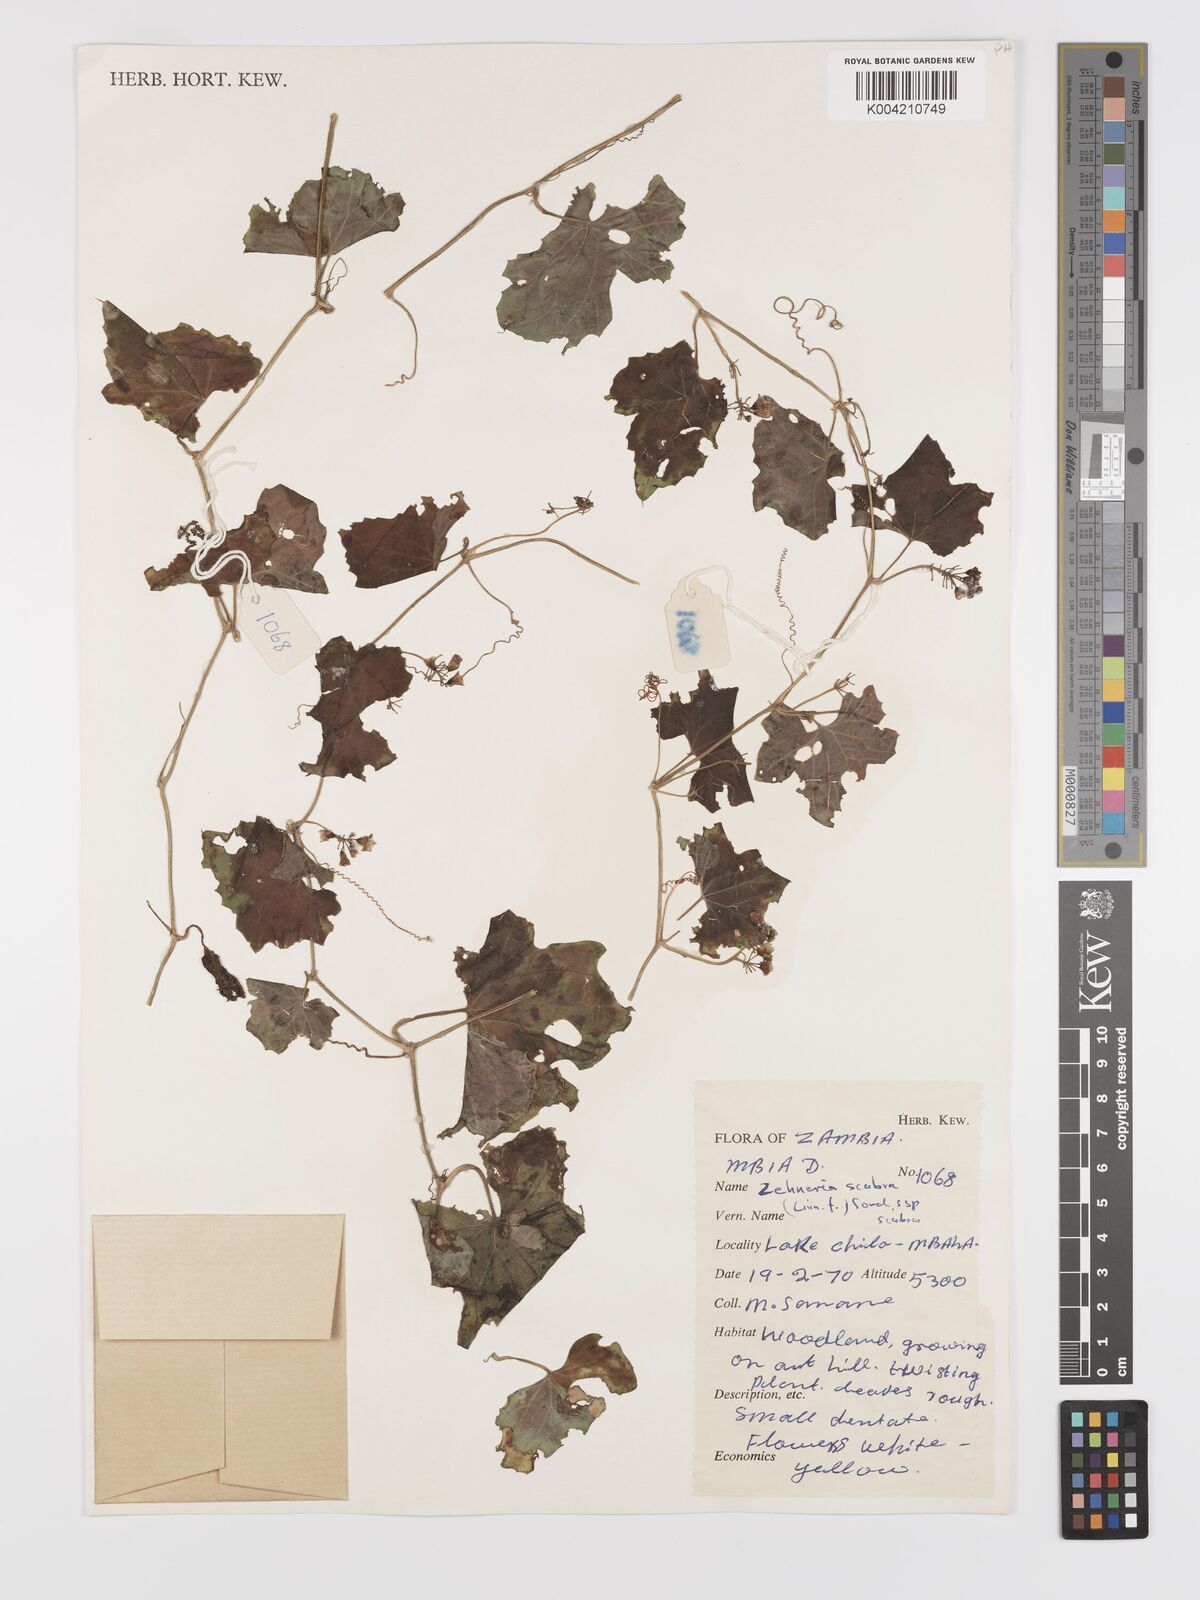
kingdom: Plantae
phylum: Tracheophyta
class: Magnoliopsida
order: Cucurbitales
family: Cucurbitaceae
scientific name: Cucurbitaceae
